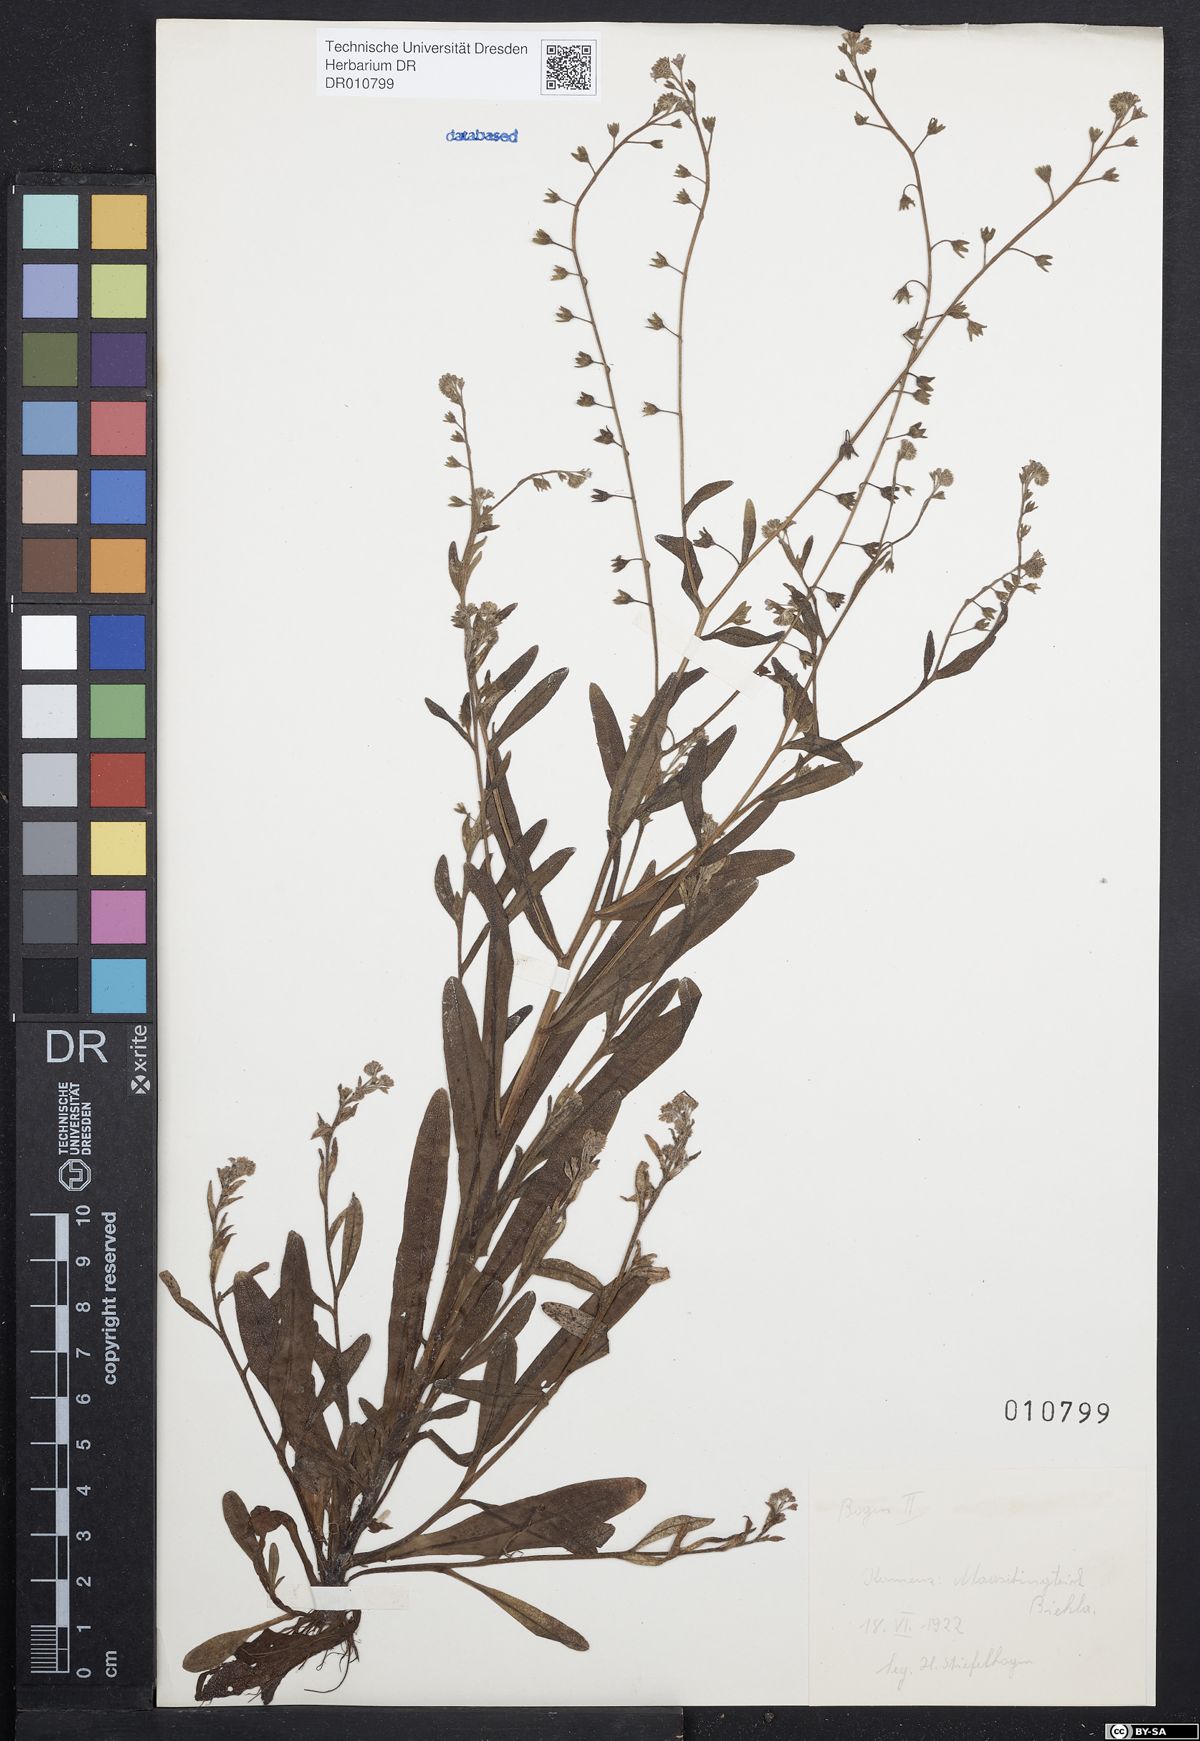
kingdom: Plantae
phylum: Tracheophyta
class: Magnoliopsida
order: Boraginales
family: Boraginaceae
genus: Myosotis
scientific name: Myosotis laxa
